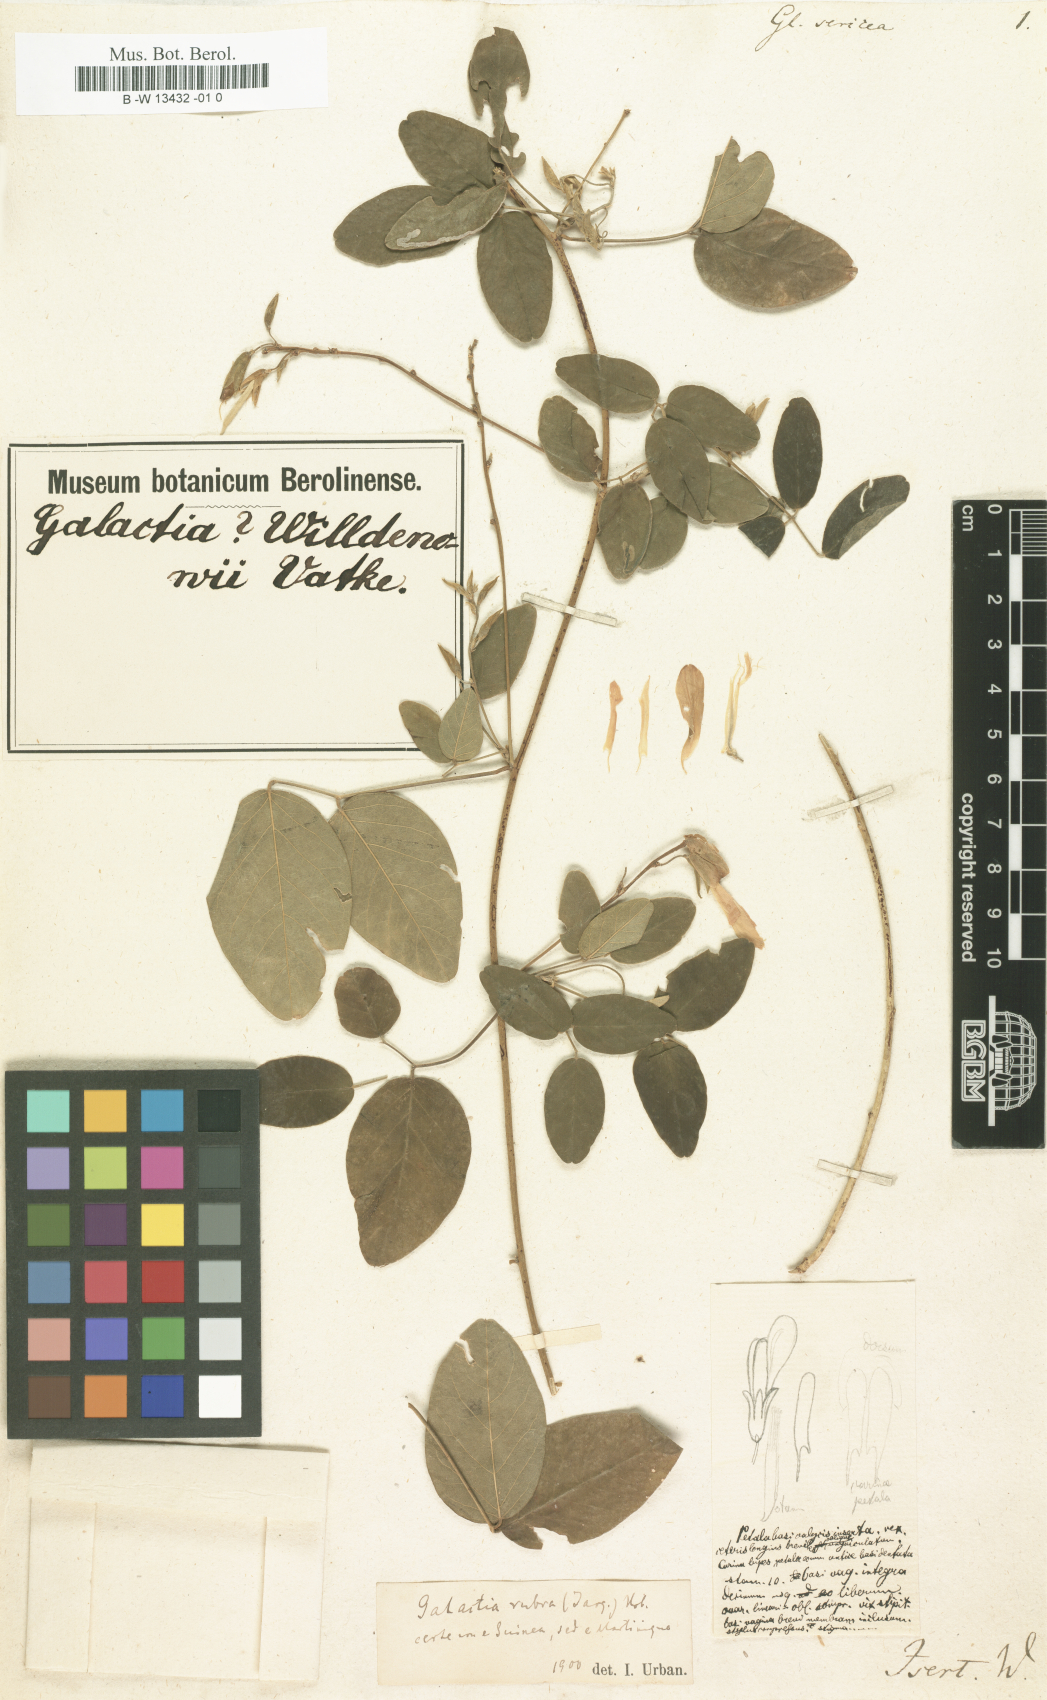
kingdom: Plantae
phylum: Tracheophyta
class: Magnoliopsida
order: Fabales
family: Fabaceae
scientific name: Fabaceae
